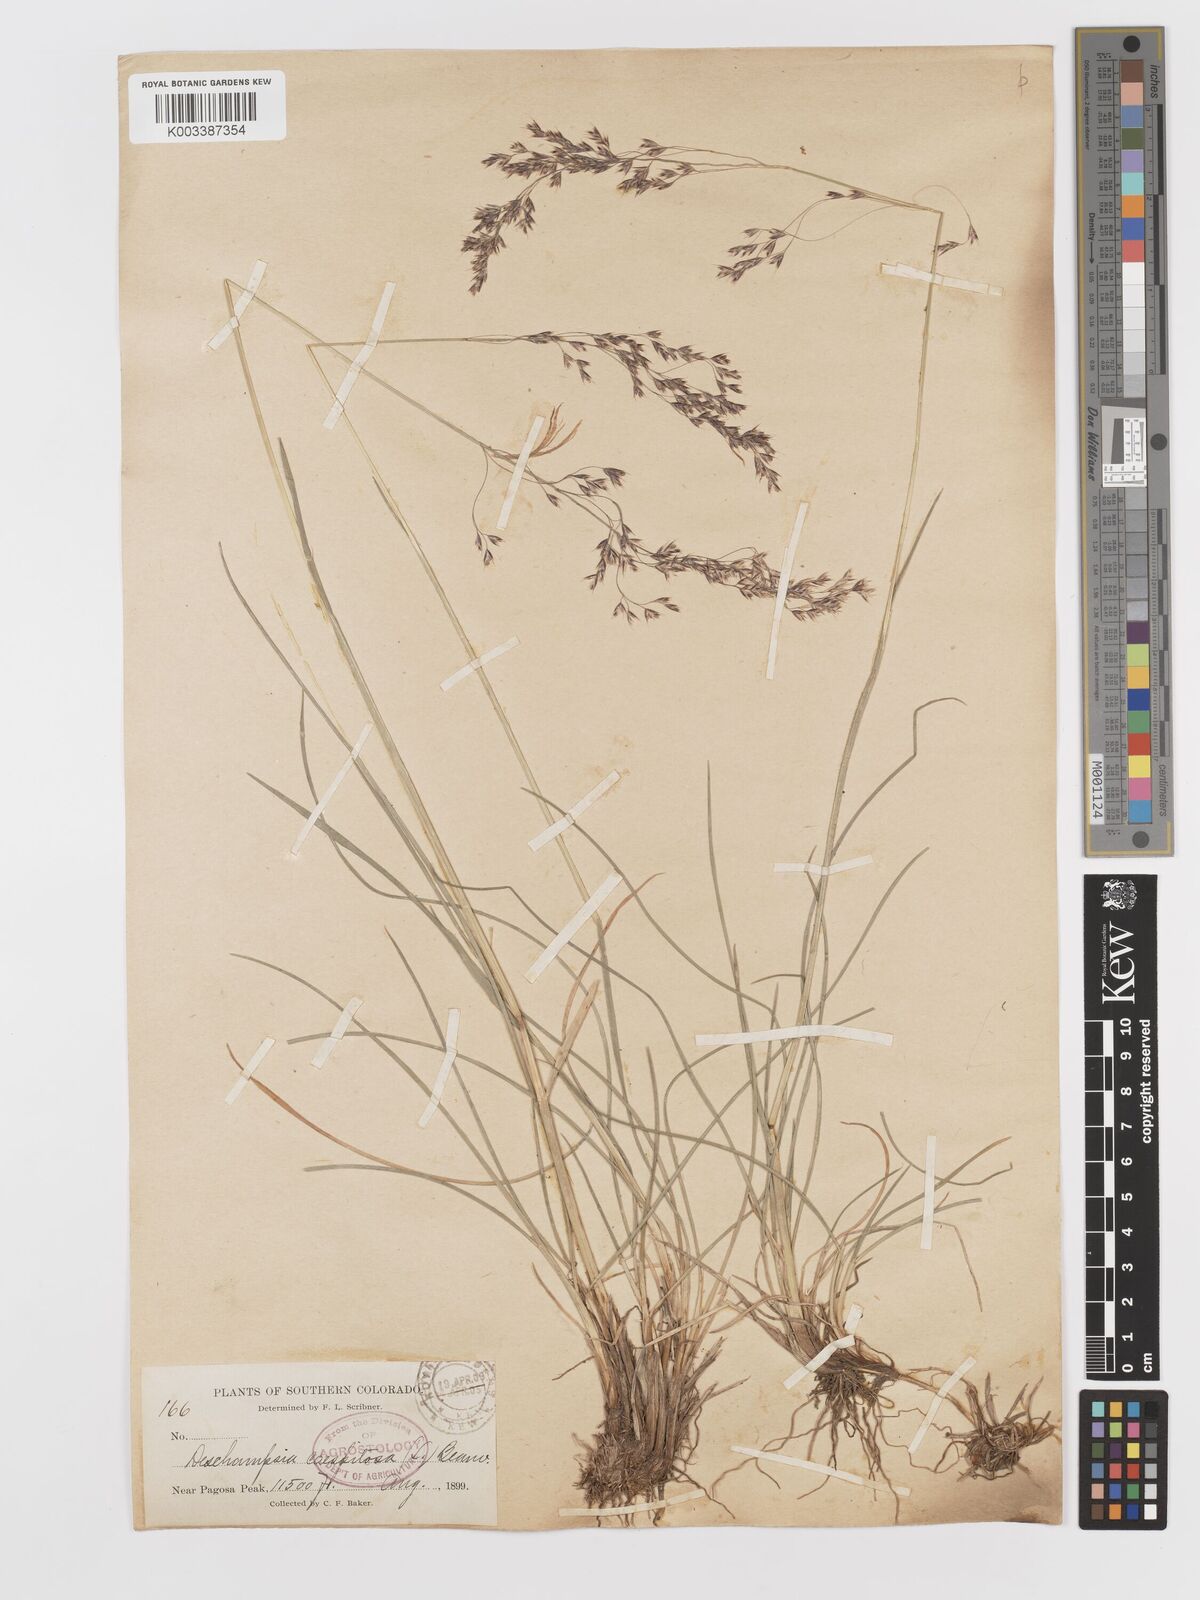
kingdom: Plantae
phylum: Tracheophyta
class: Liliopsida
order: Poales
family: Poaceae
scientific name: Poaceae
